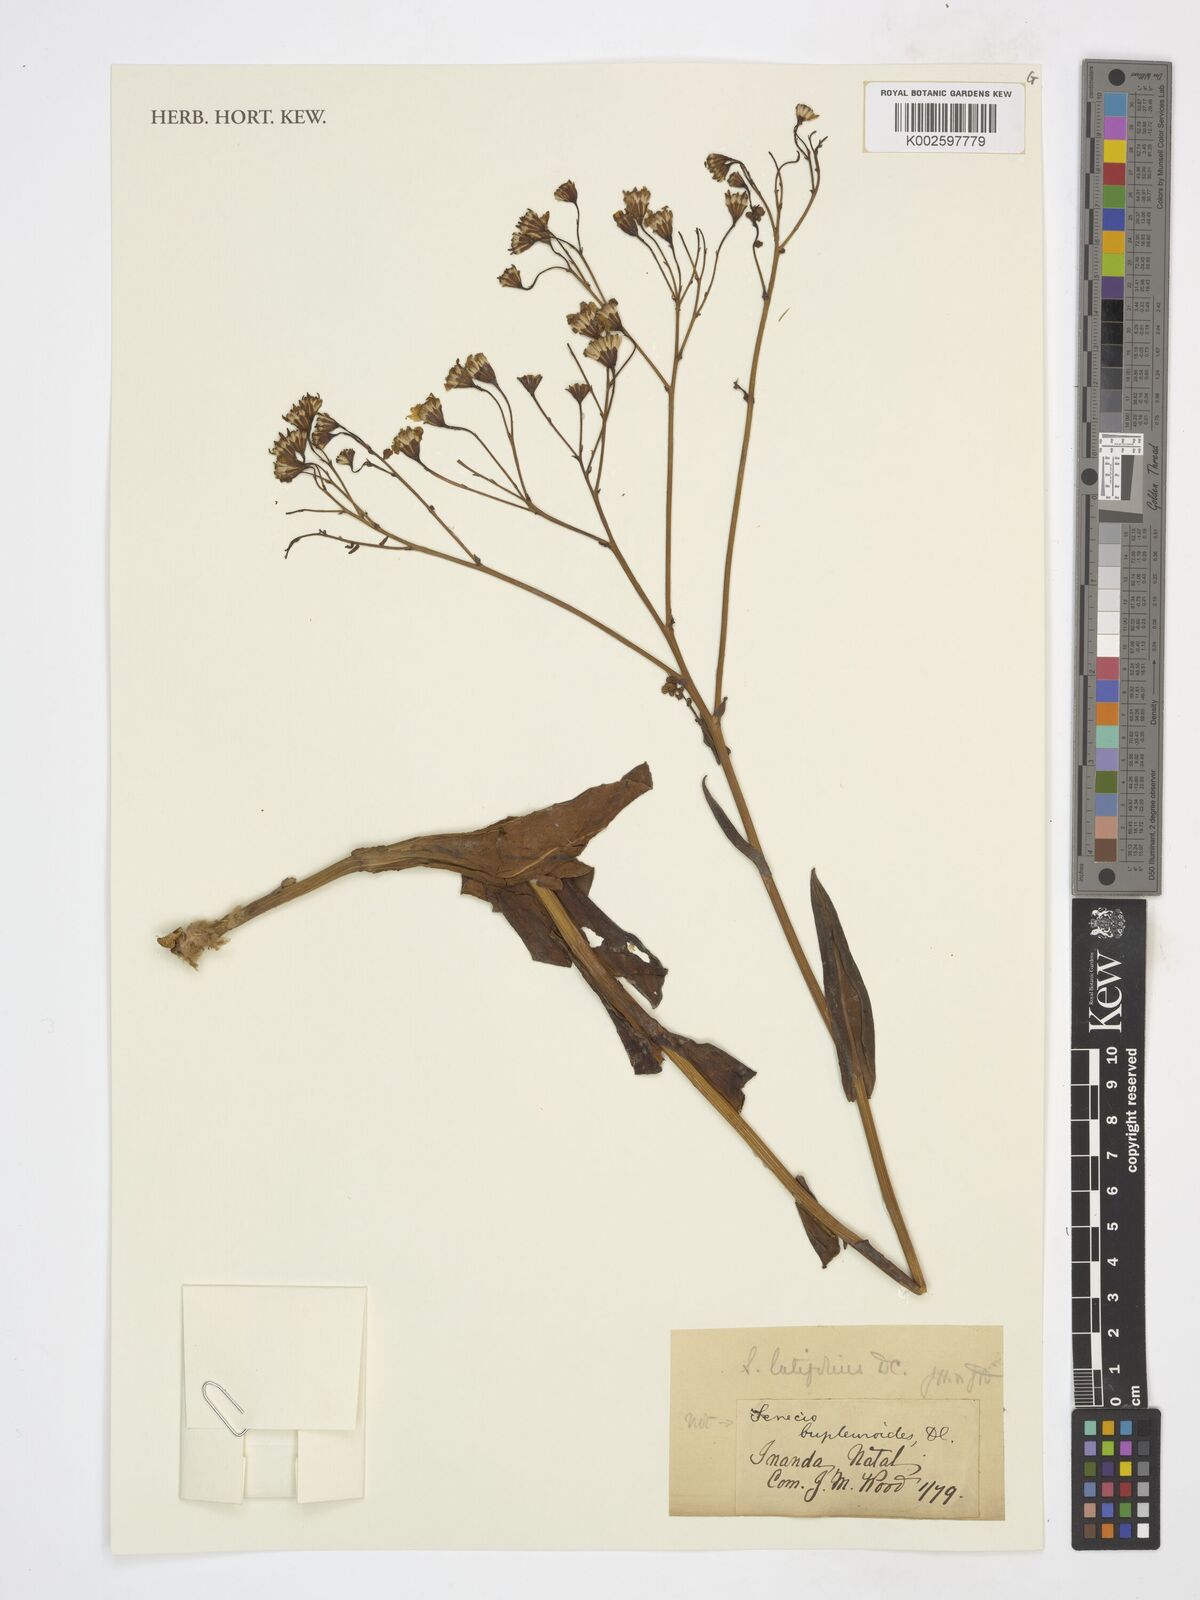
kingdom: Plantae
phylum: Tracheophyta
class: Magnoliopsida
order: Asterales
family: Asteraceae
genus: Senecio
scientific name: Senecio bupleuroides
